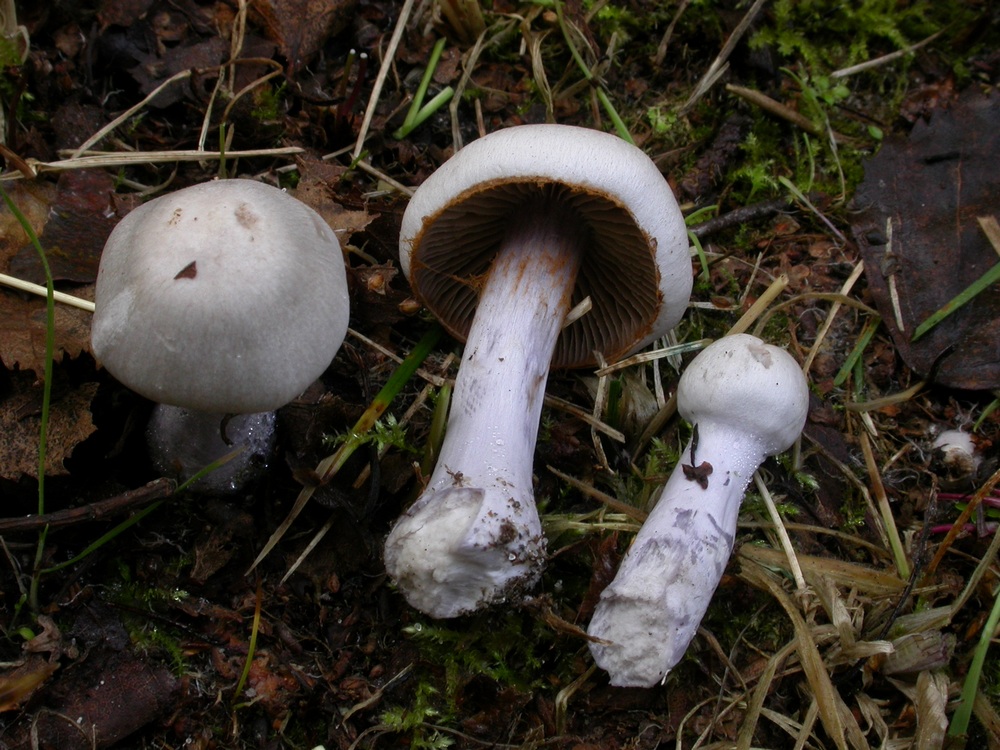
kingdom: Fungi
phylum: Basidiomycota
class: Agaricomycetes
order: Agaricales
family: Cortinariaceae
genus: Cortinarius
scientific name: Cortinarius alboviolaceus
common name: lysviolet slørhat
